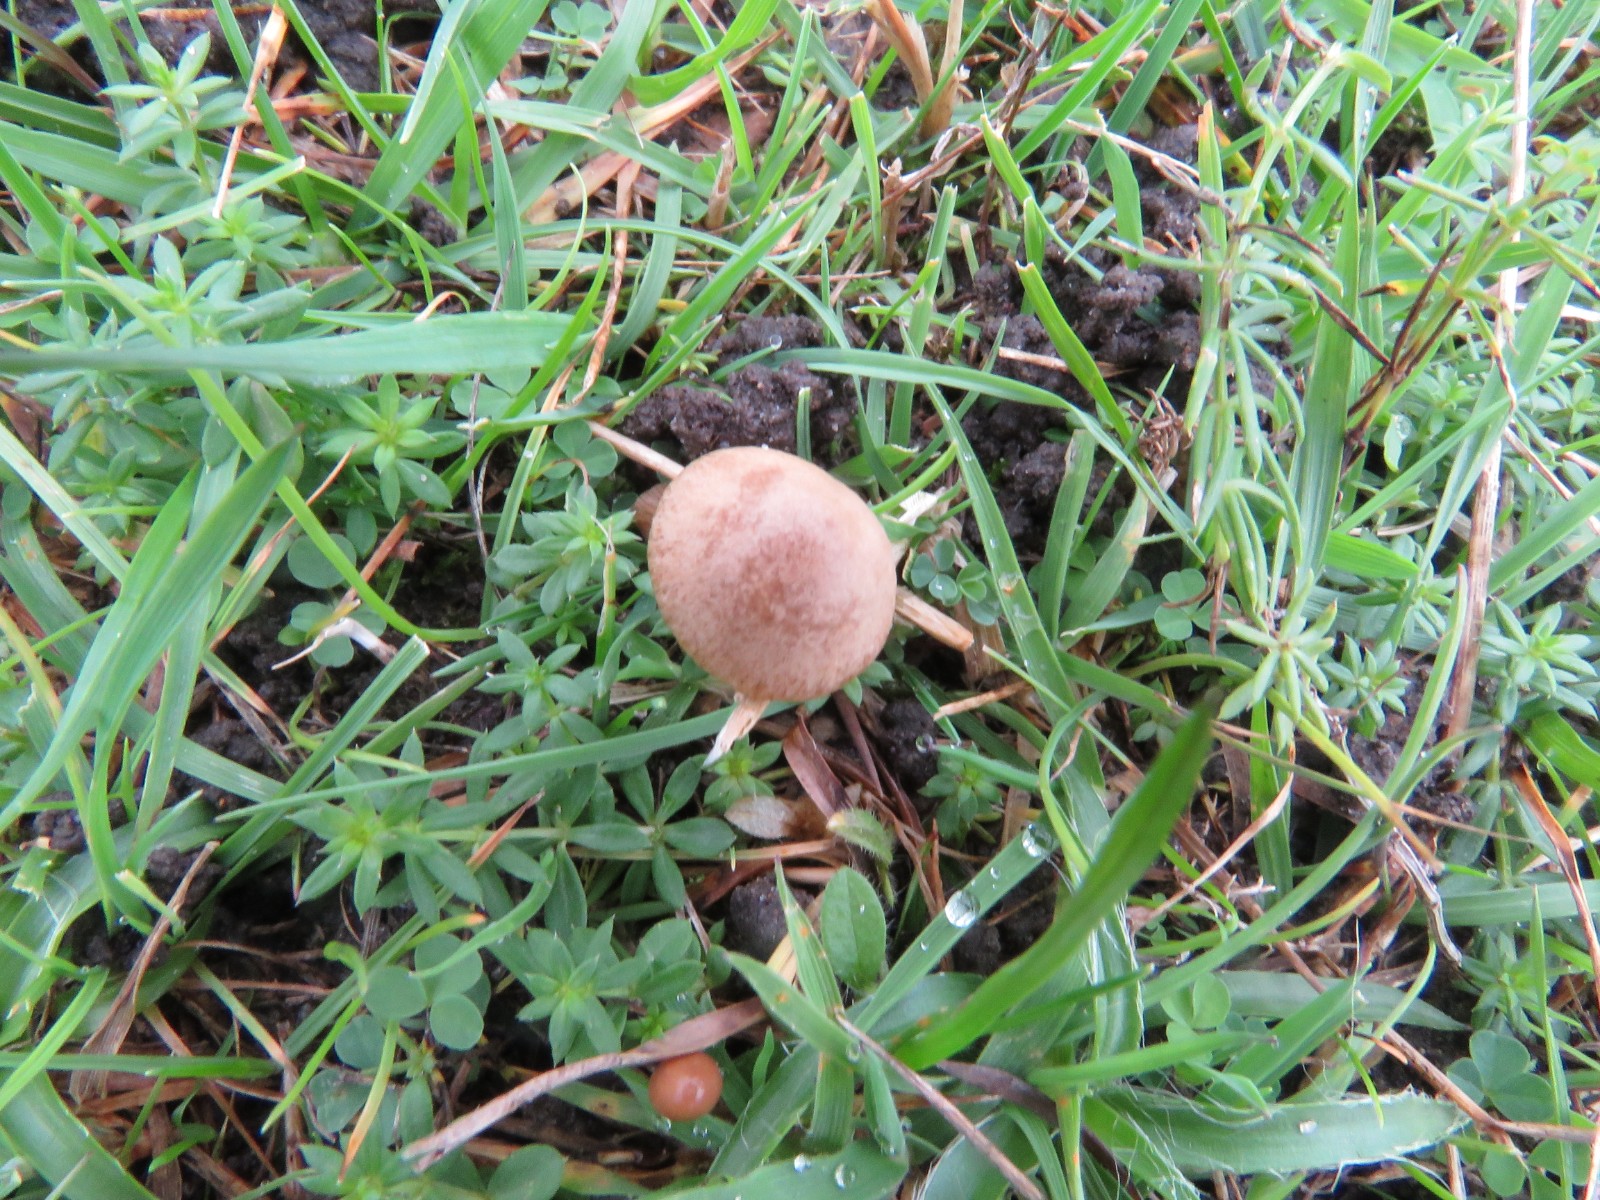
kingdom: Fungi
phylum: Basidiomycota
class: Agaricomycetes
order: Agaricales
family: Bolbitiaceae
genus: Panaeolina
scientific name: Panaeolina foenisecii
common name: høslætsvamp
